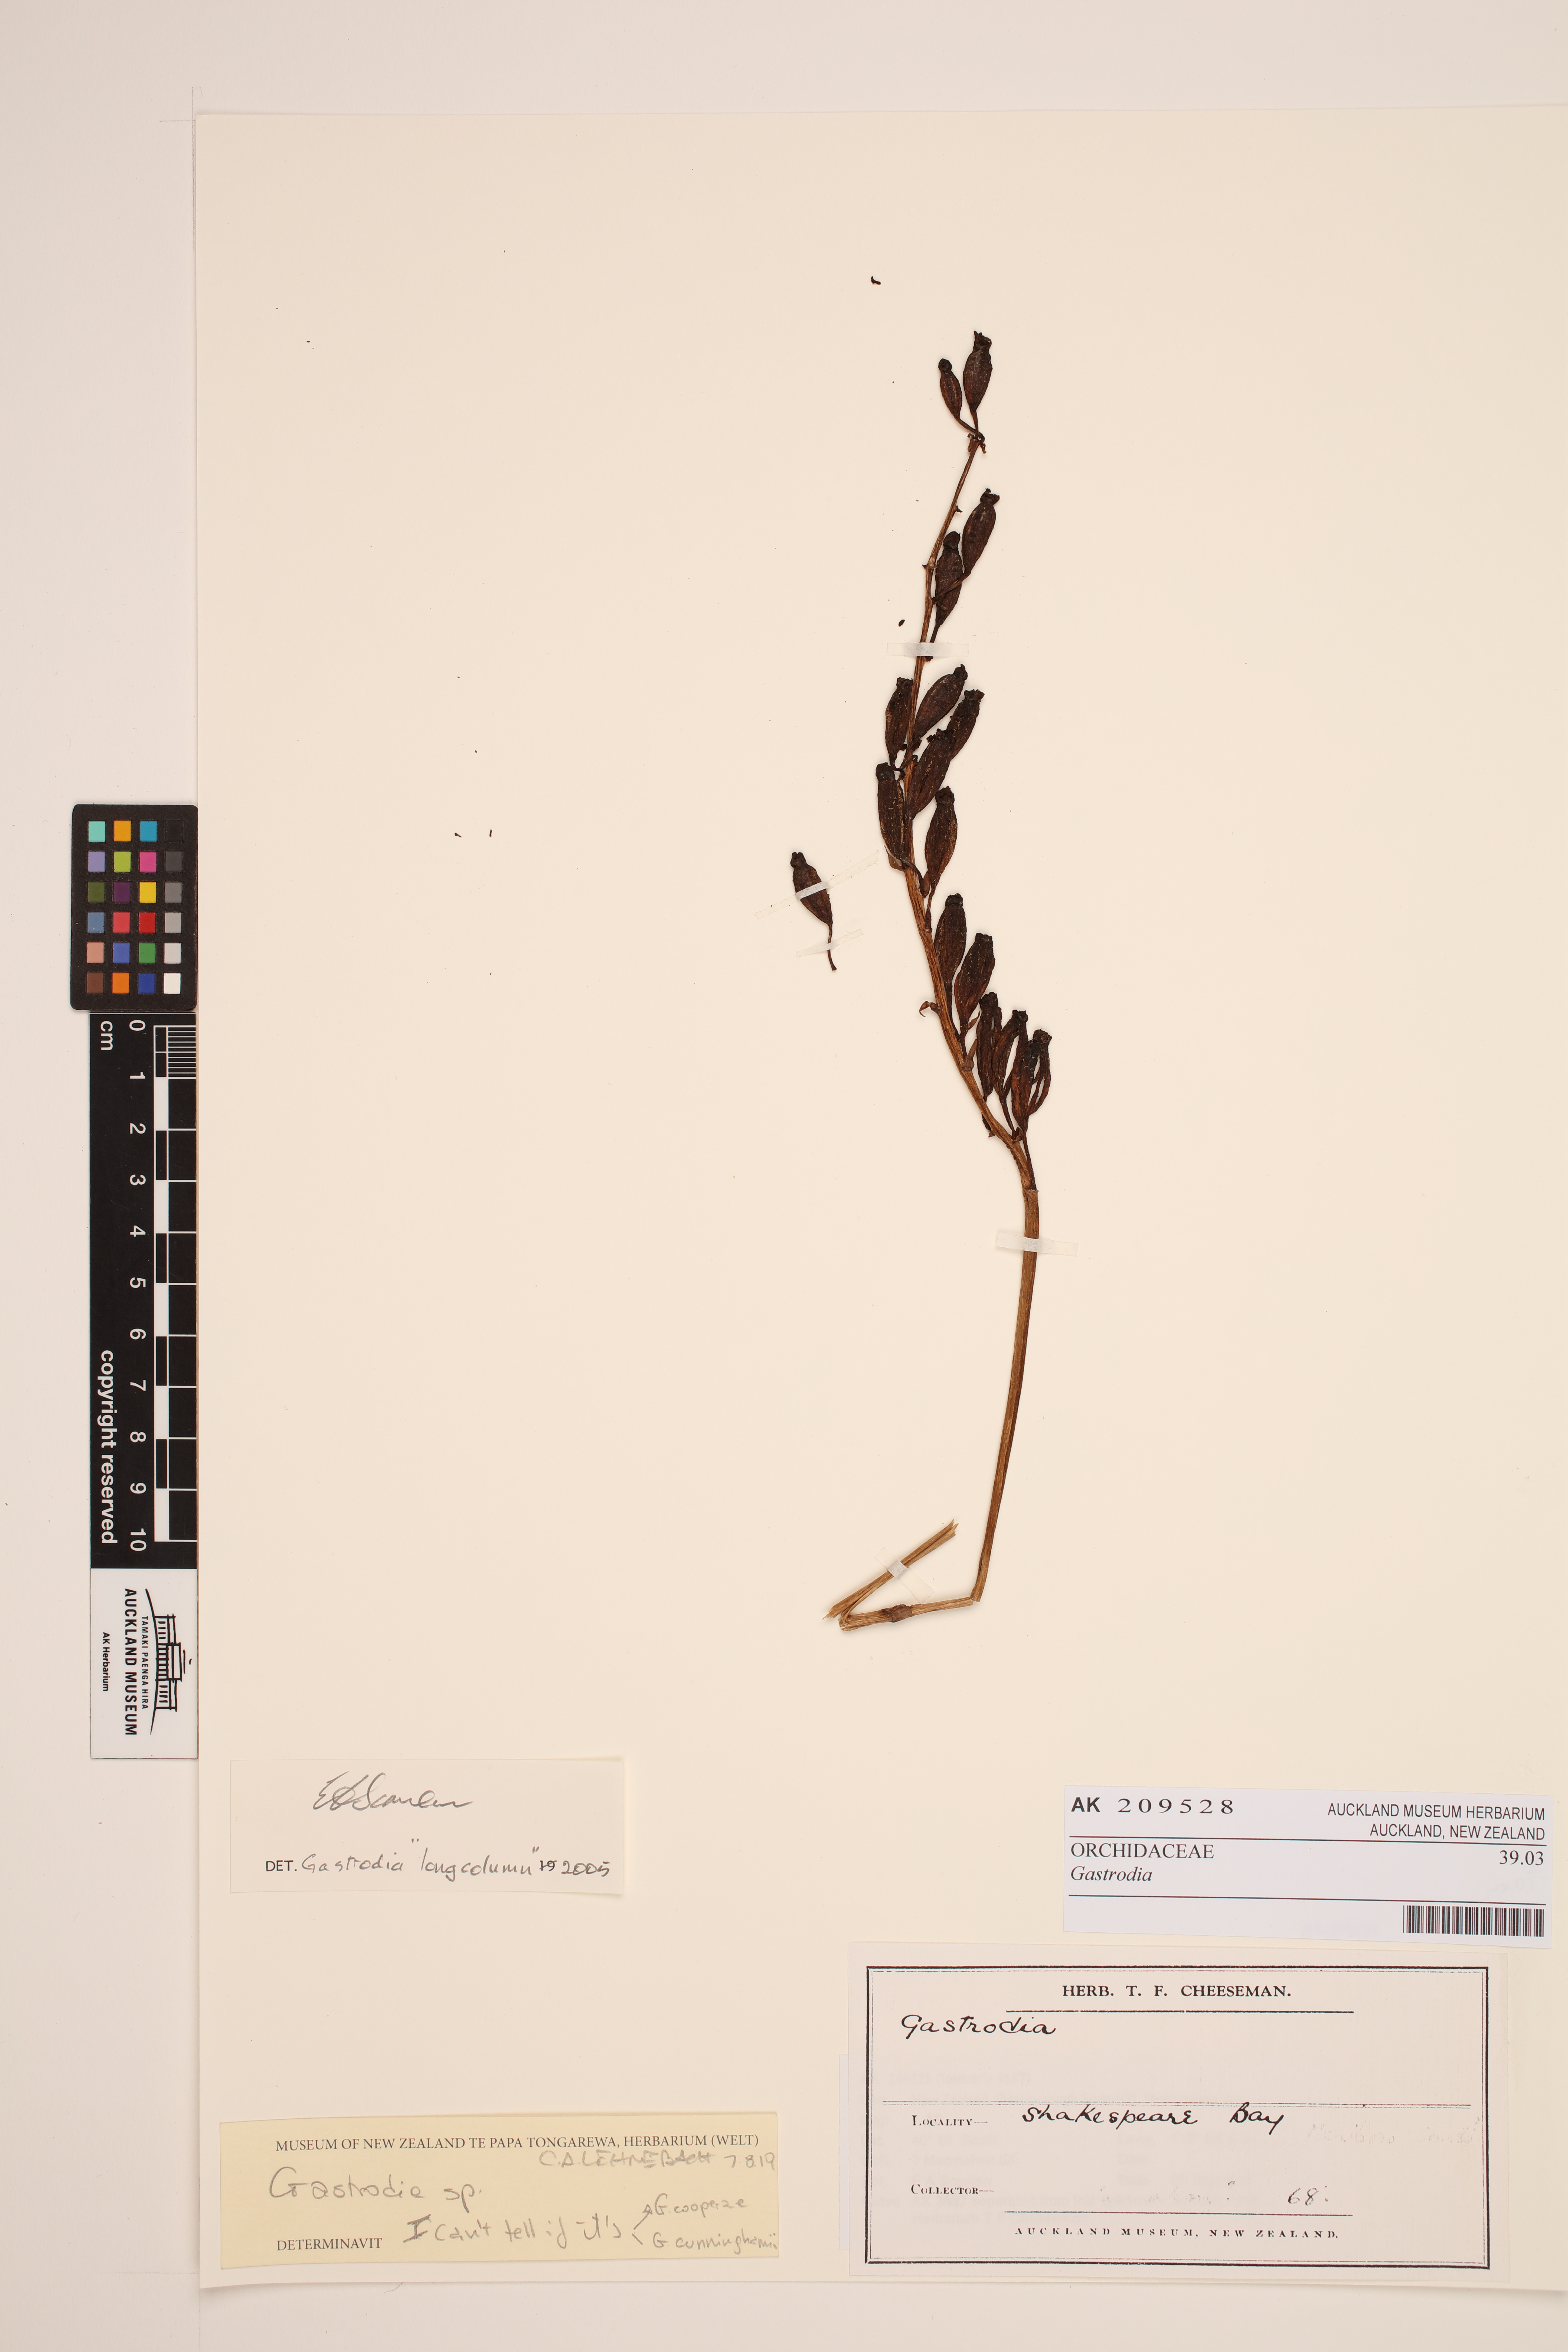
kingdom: Plantae
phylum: Tracheophyta
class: Liliopsida
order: Asparagales
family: Orchidaceae
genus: Gastrodia
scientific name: Gastrodia
